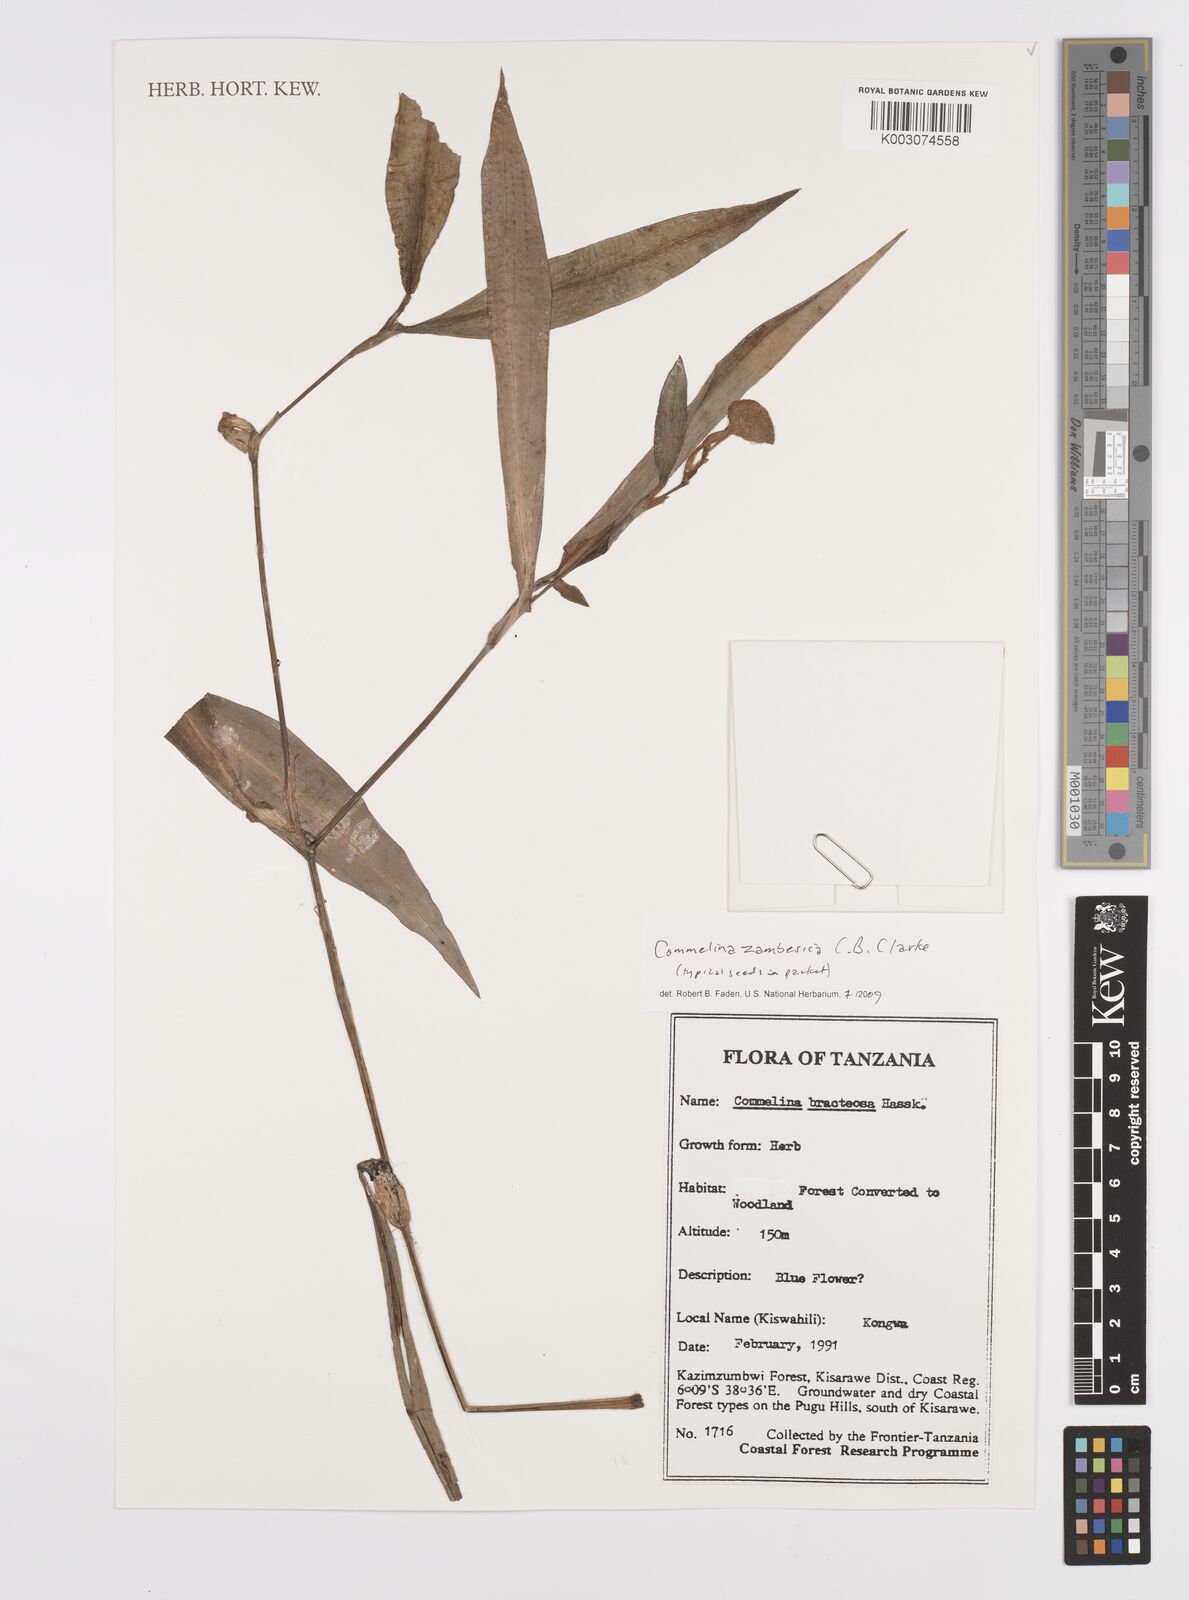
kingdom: Plantae
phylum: Tracheophyta
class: Liliopsida
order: Commelinales
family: Commelinaceae
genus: Commelina
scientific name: Commelina zambesica
